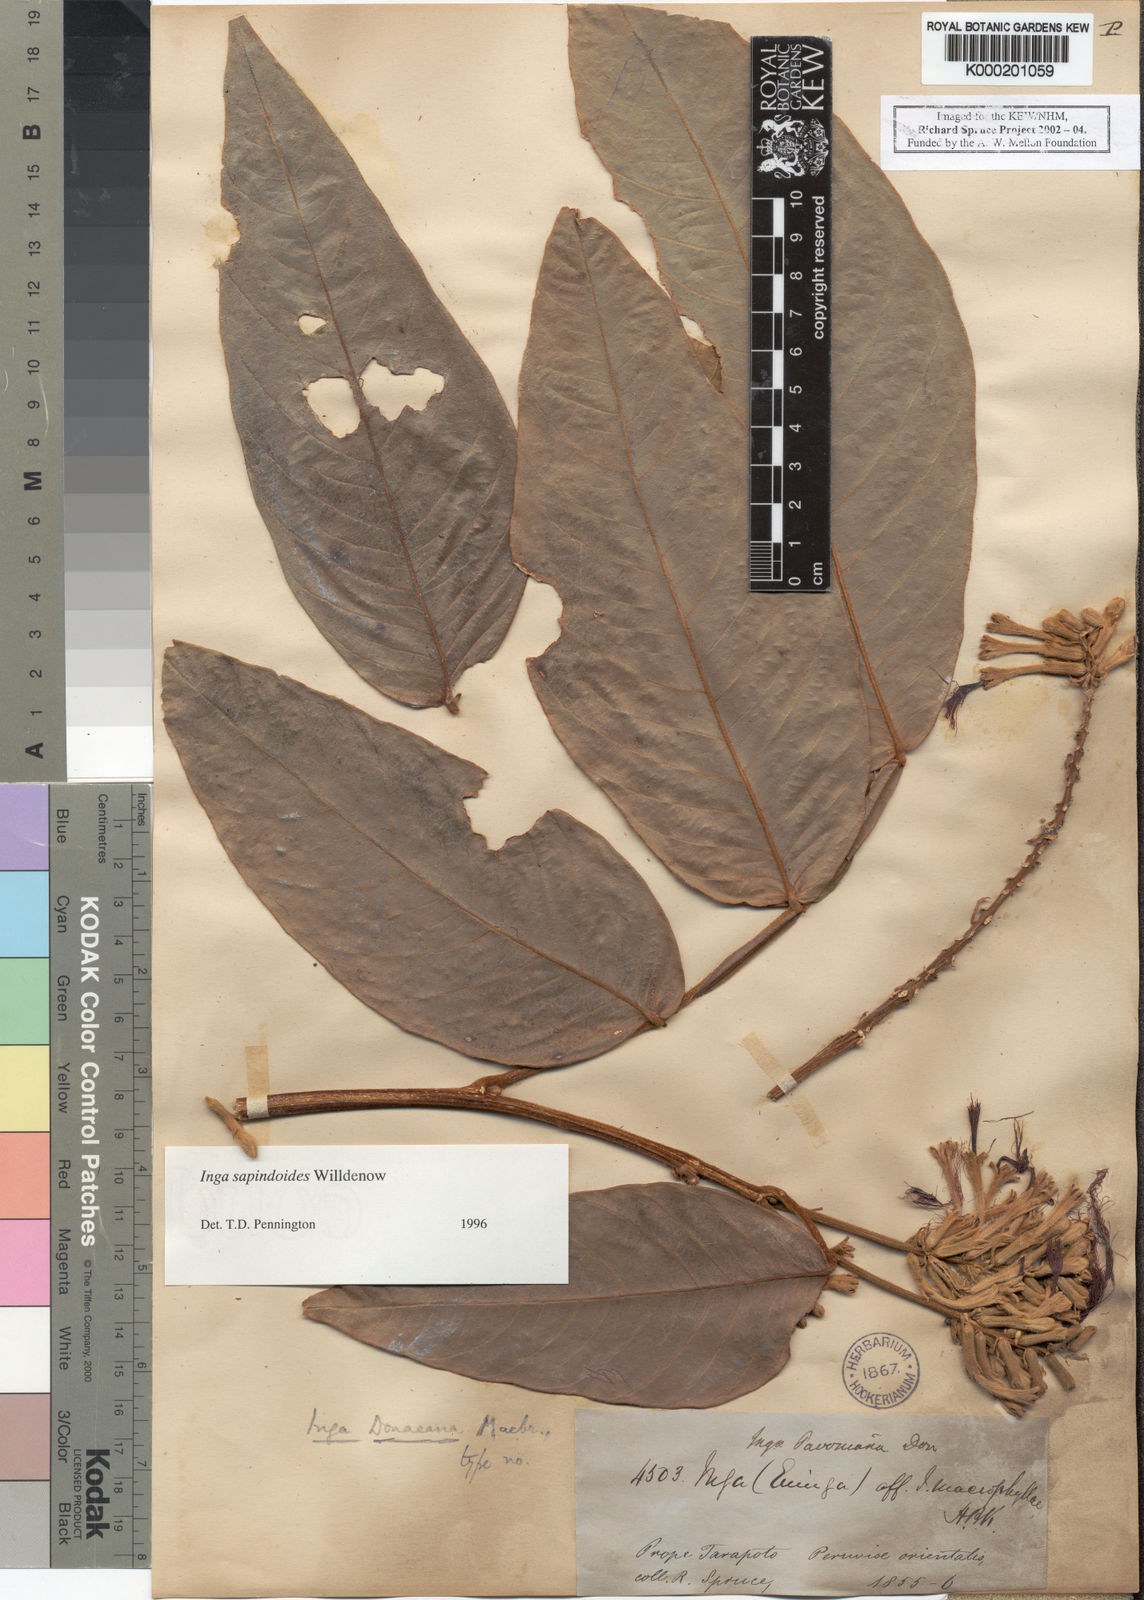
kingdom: Plantae
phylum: Tracheophyta
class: Magnoliopsida
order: Fabales
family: Fabaceae
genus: Inga
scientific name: Inga sapindoides
